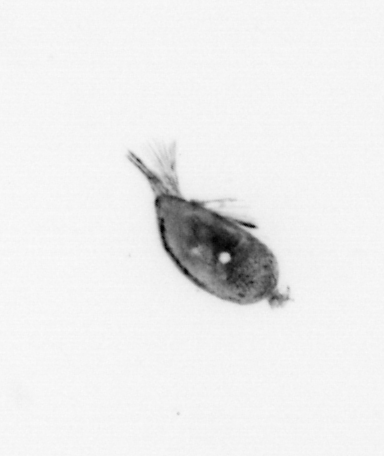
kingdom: Animalia
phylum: Arthropoda
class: Maxillopoda
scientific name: Maxillopoda
